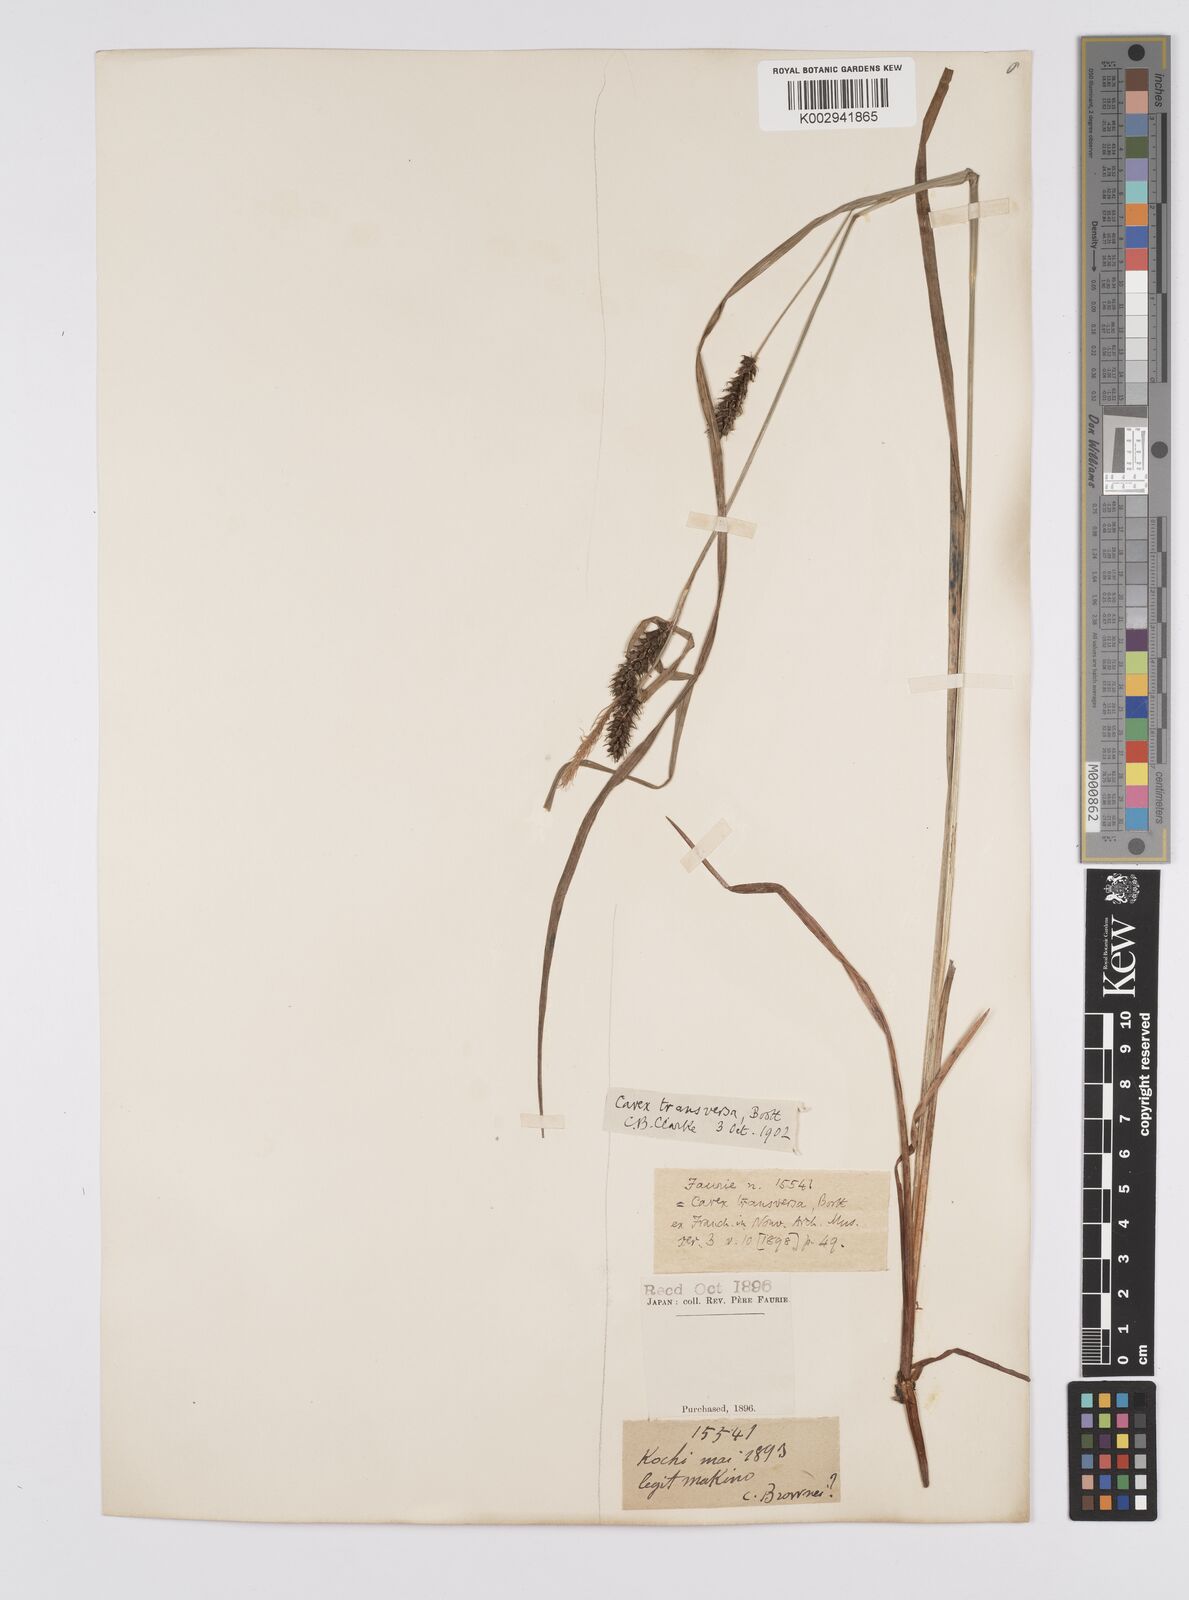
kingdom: Plantae
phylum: Tracheophyta
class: Liliopsida
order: Poales
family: Cyperaceae
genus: Carex
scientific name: Carex brownii
